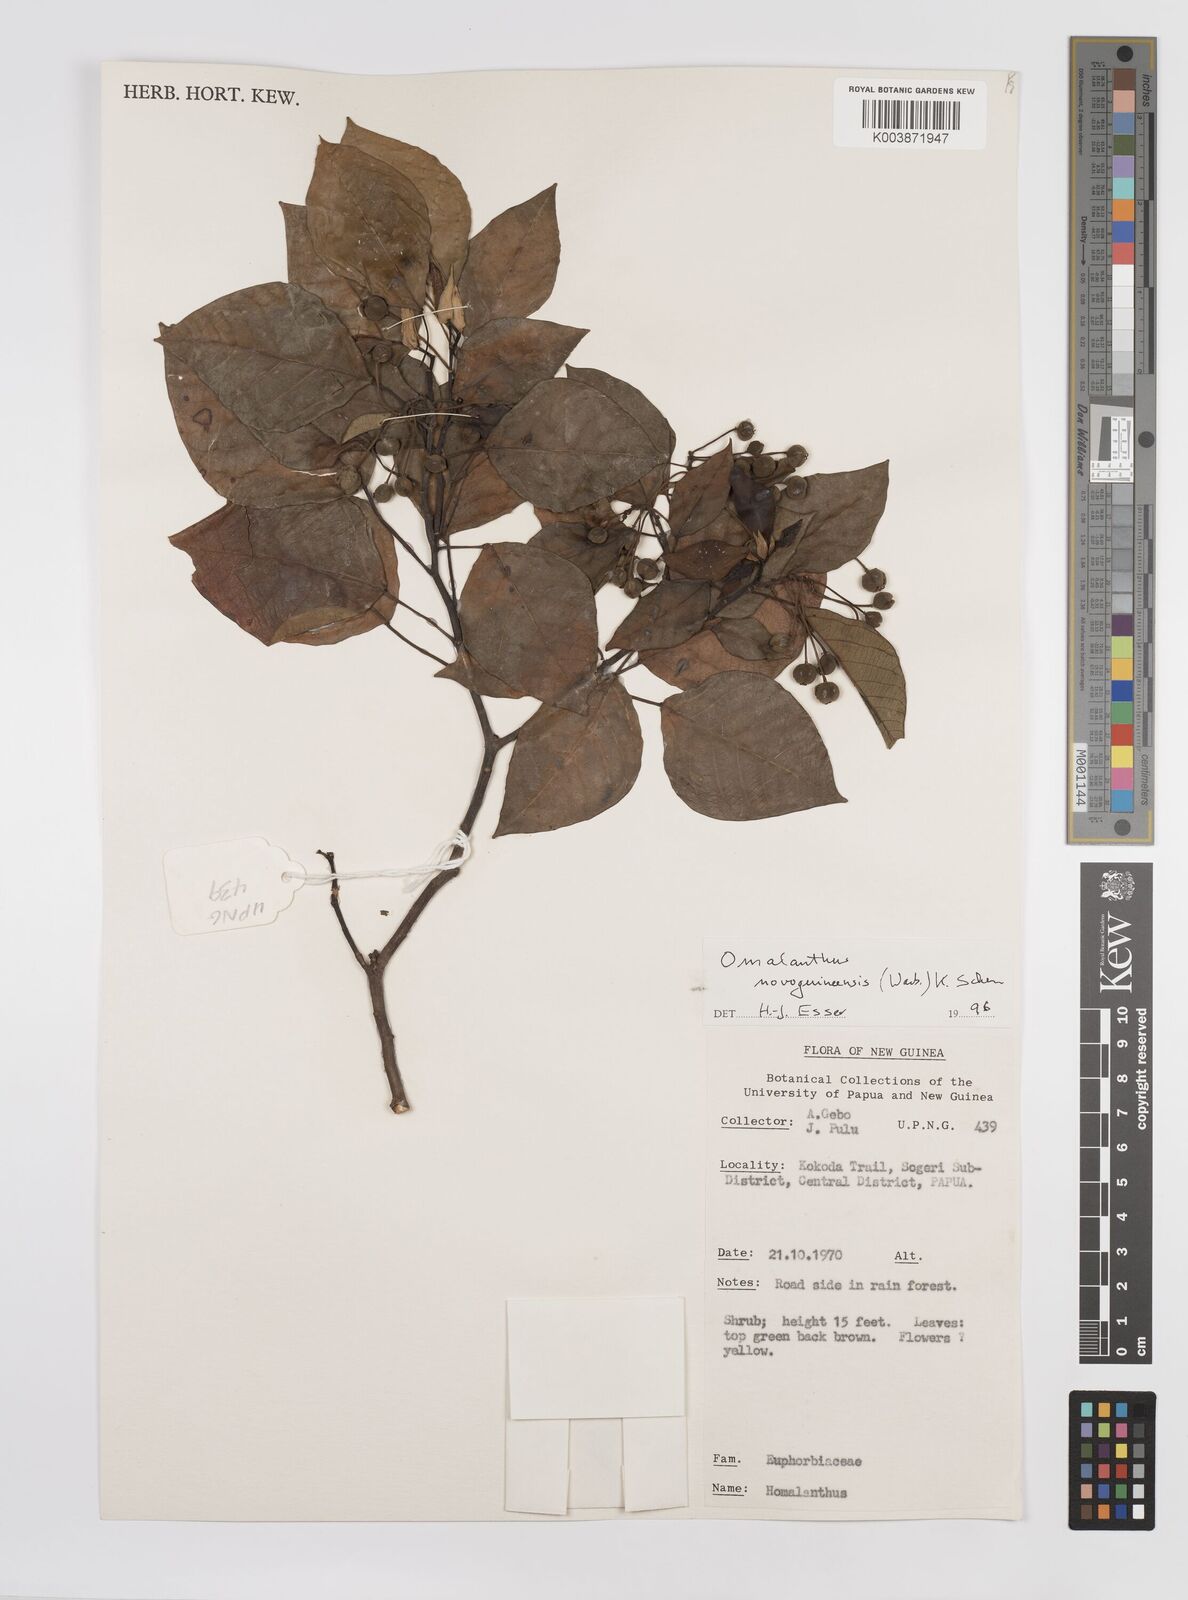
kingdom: Plantae
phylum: Tracheophyta
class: Magnoliopsida
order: Malpighiales
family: Euphorbiaceae
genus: Homalanthus
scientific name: Homalanthus novoguineensis
